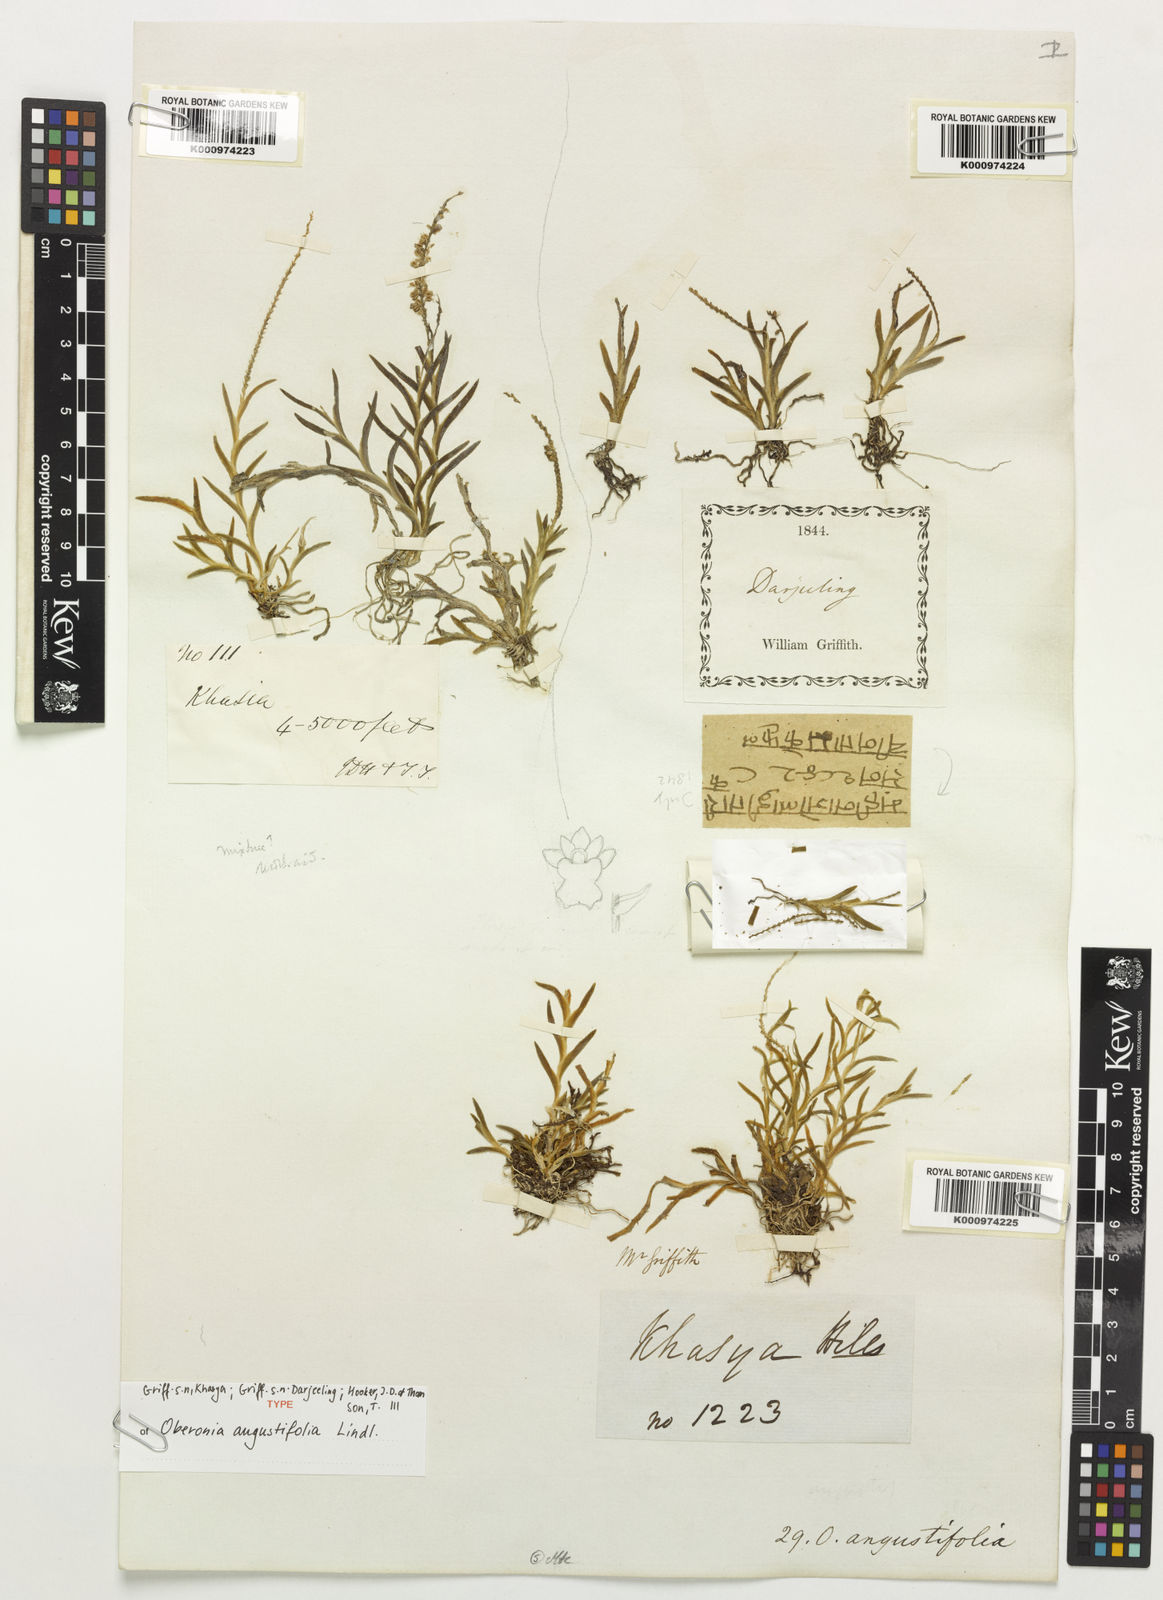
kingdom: Plantae
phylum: Tracheophyta
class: Liliopsida
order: Asparagales
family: Orchidaceae
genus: Oberonia
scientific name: Oberonia angustifolia
